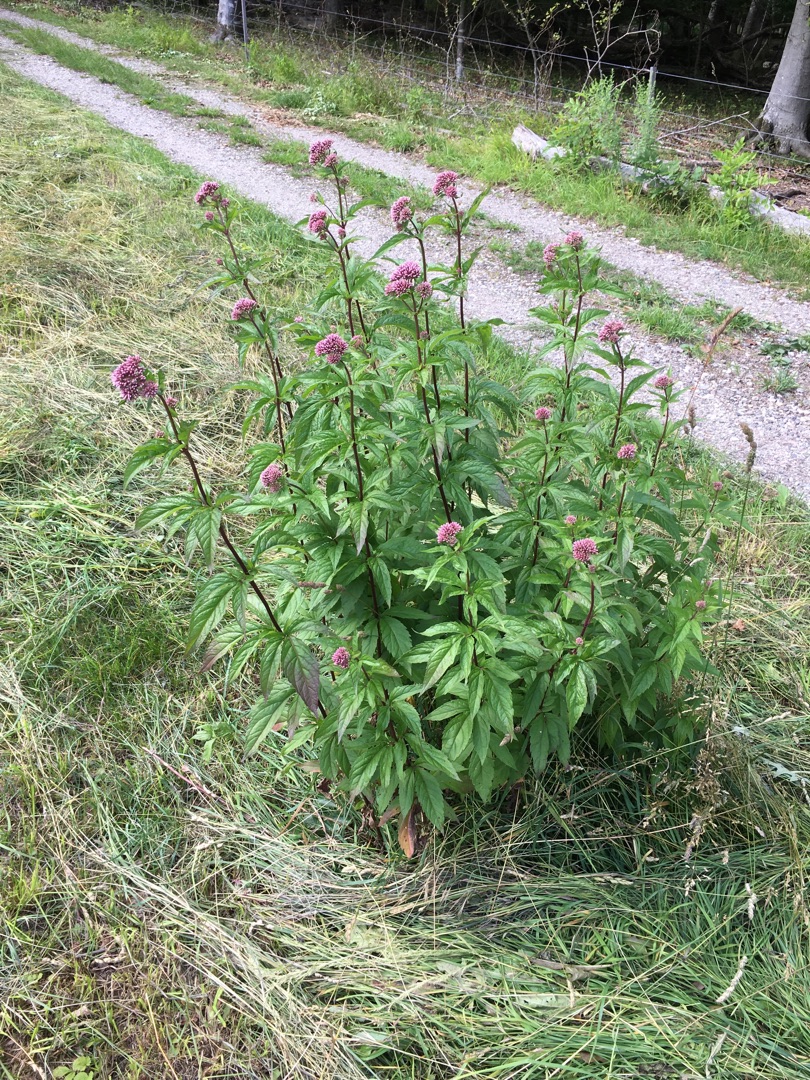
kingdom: Plantae
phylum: Tracheophyta
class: Magnoliopsida
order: Asterales
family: Asteraceae
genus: Eupatorium
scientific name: Eupatorium cannabinum
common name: Hjortetrøst
